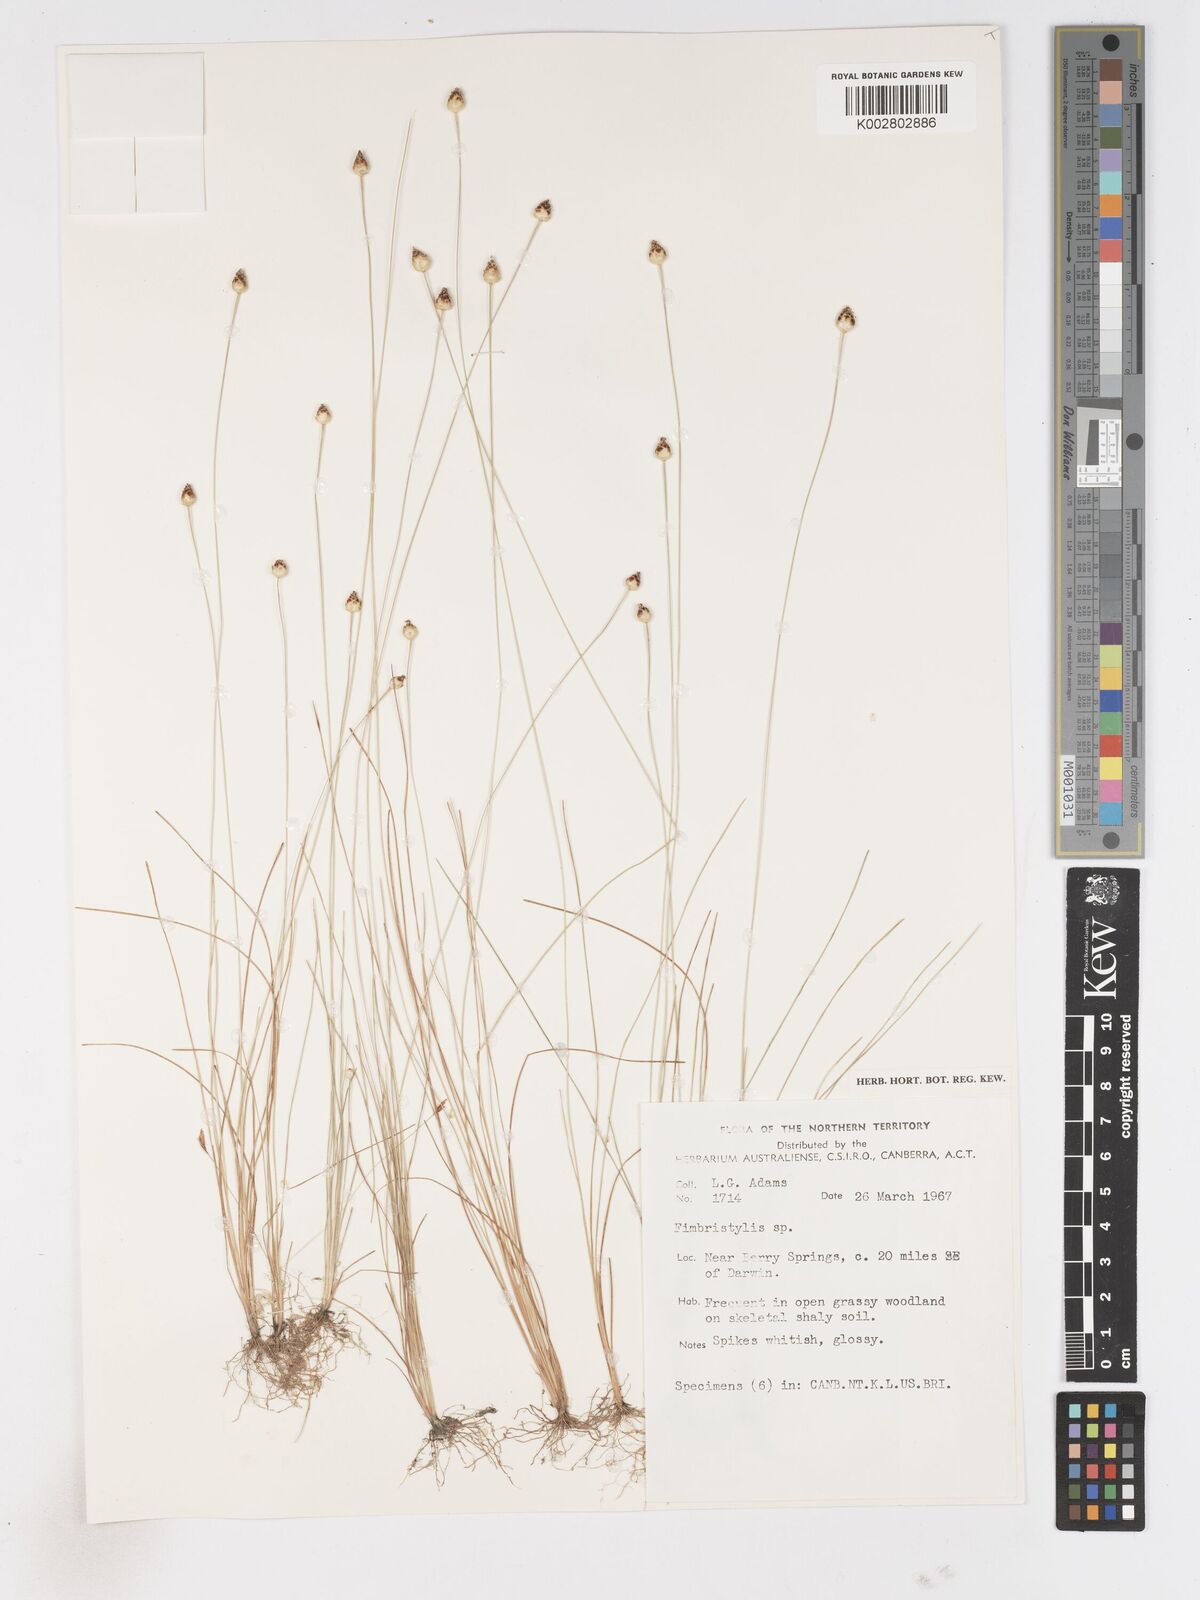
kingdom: Plantae
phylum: Tracheophyta
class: Liliopsida
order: Poales
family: Cyperaceae
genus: Fimbristylis
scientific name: Fimbristylis
